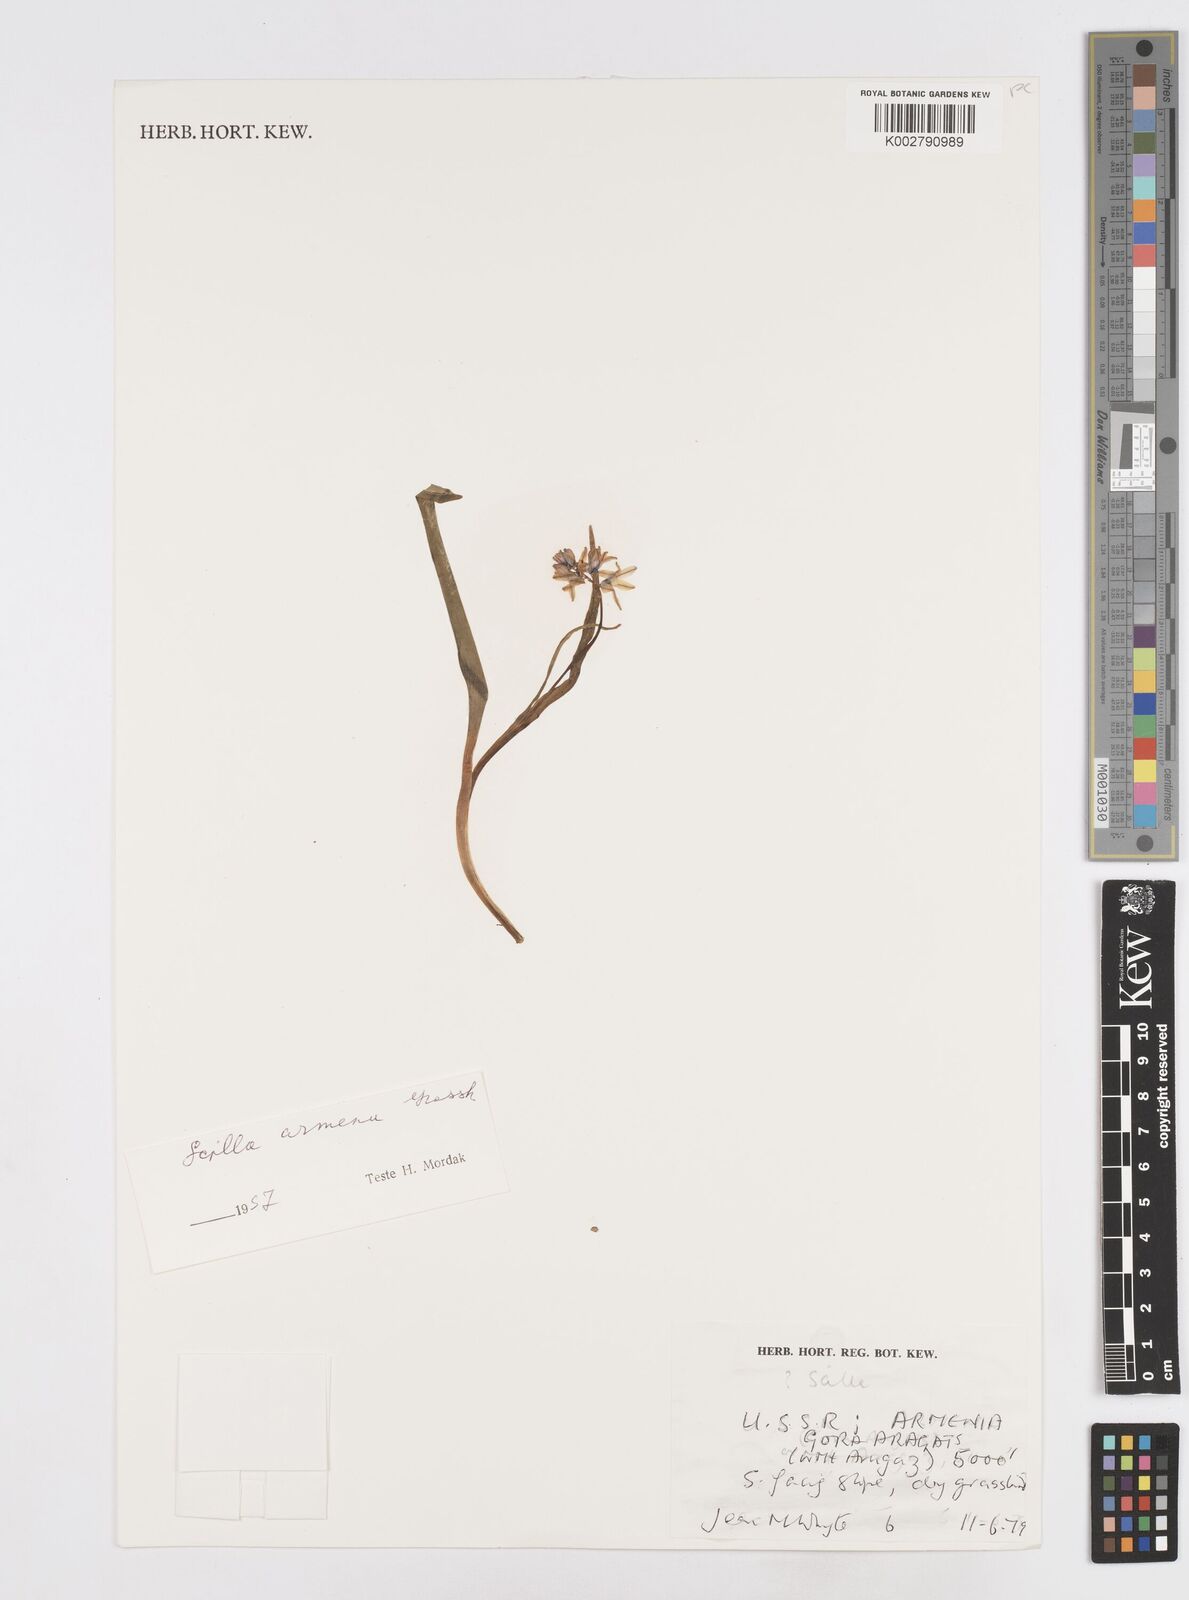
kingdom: Plantae
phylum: Tracheophyta
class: Liliopsida
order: Asparagales
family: Asparagaceae
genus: Scilla
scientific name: Scilla
